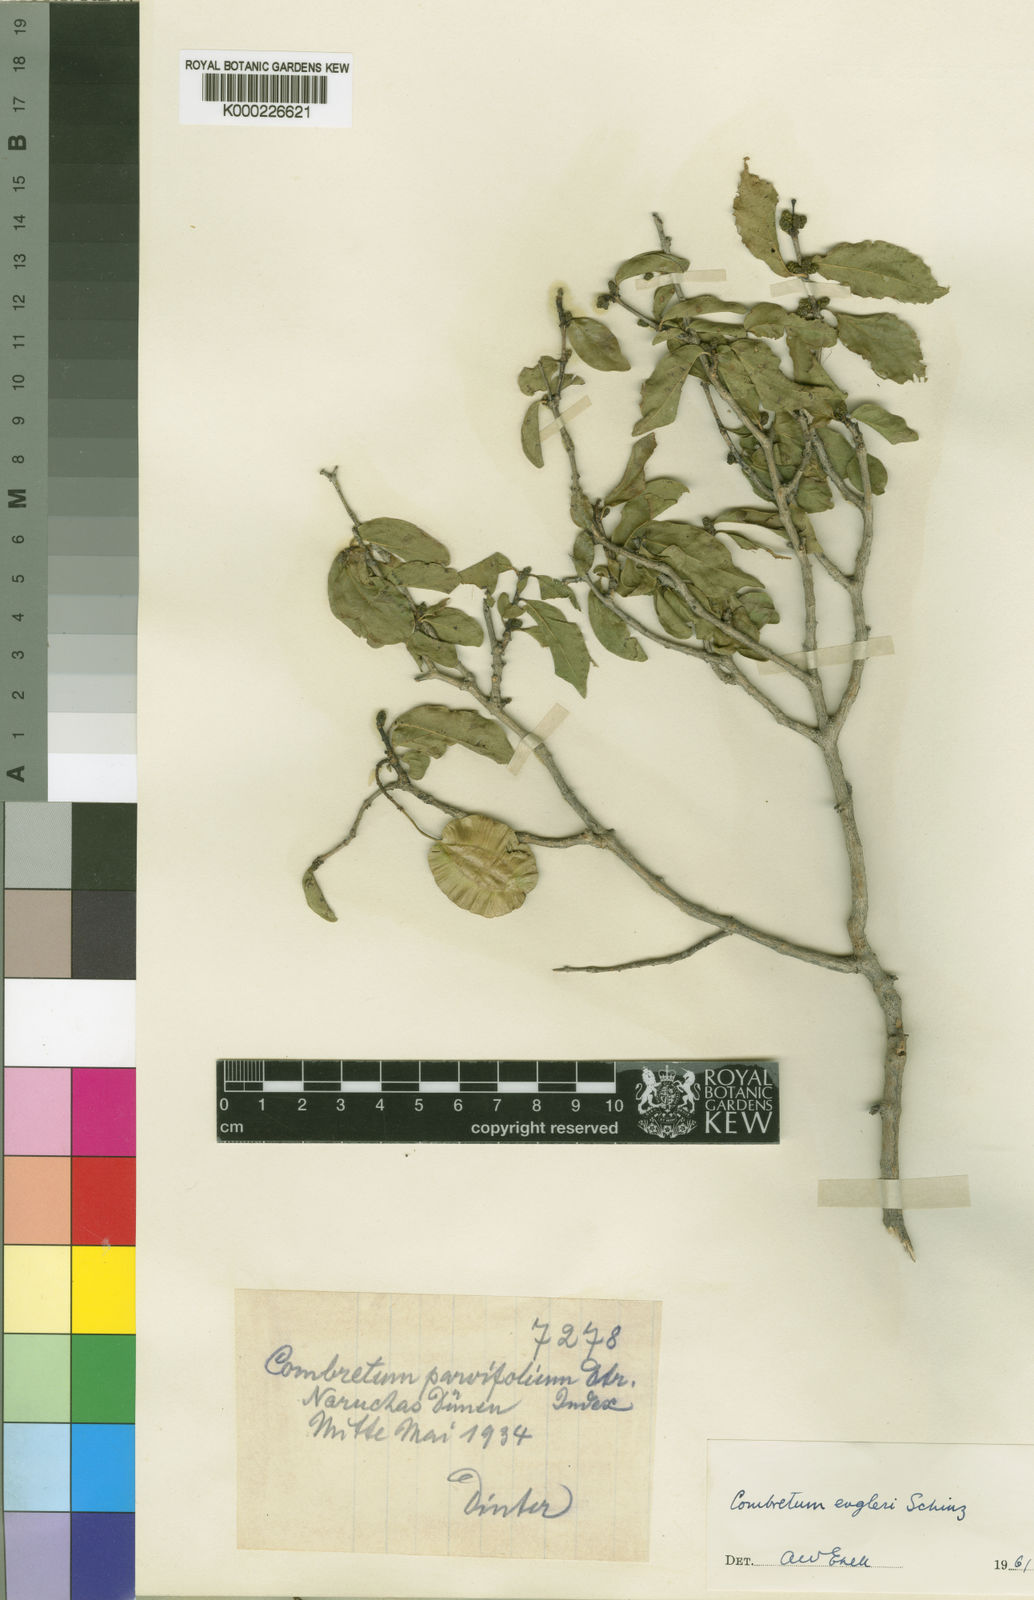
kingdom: Plantae
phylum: Tracheophyta
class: Magnoliopsida
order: Myrtales
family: Combretaceae
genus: Combretum
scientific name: Combretum
